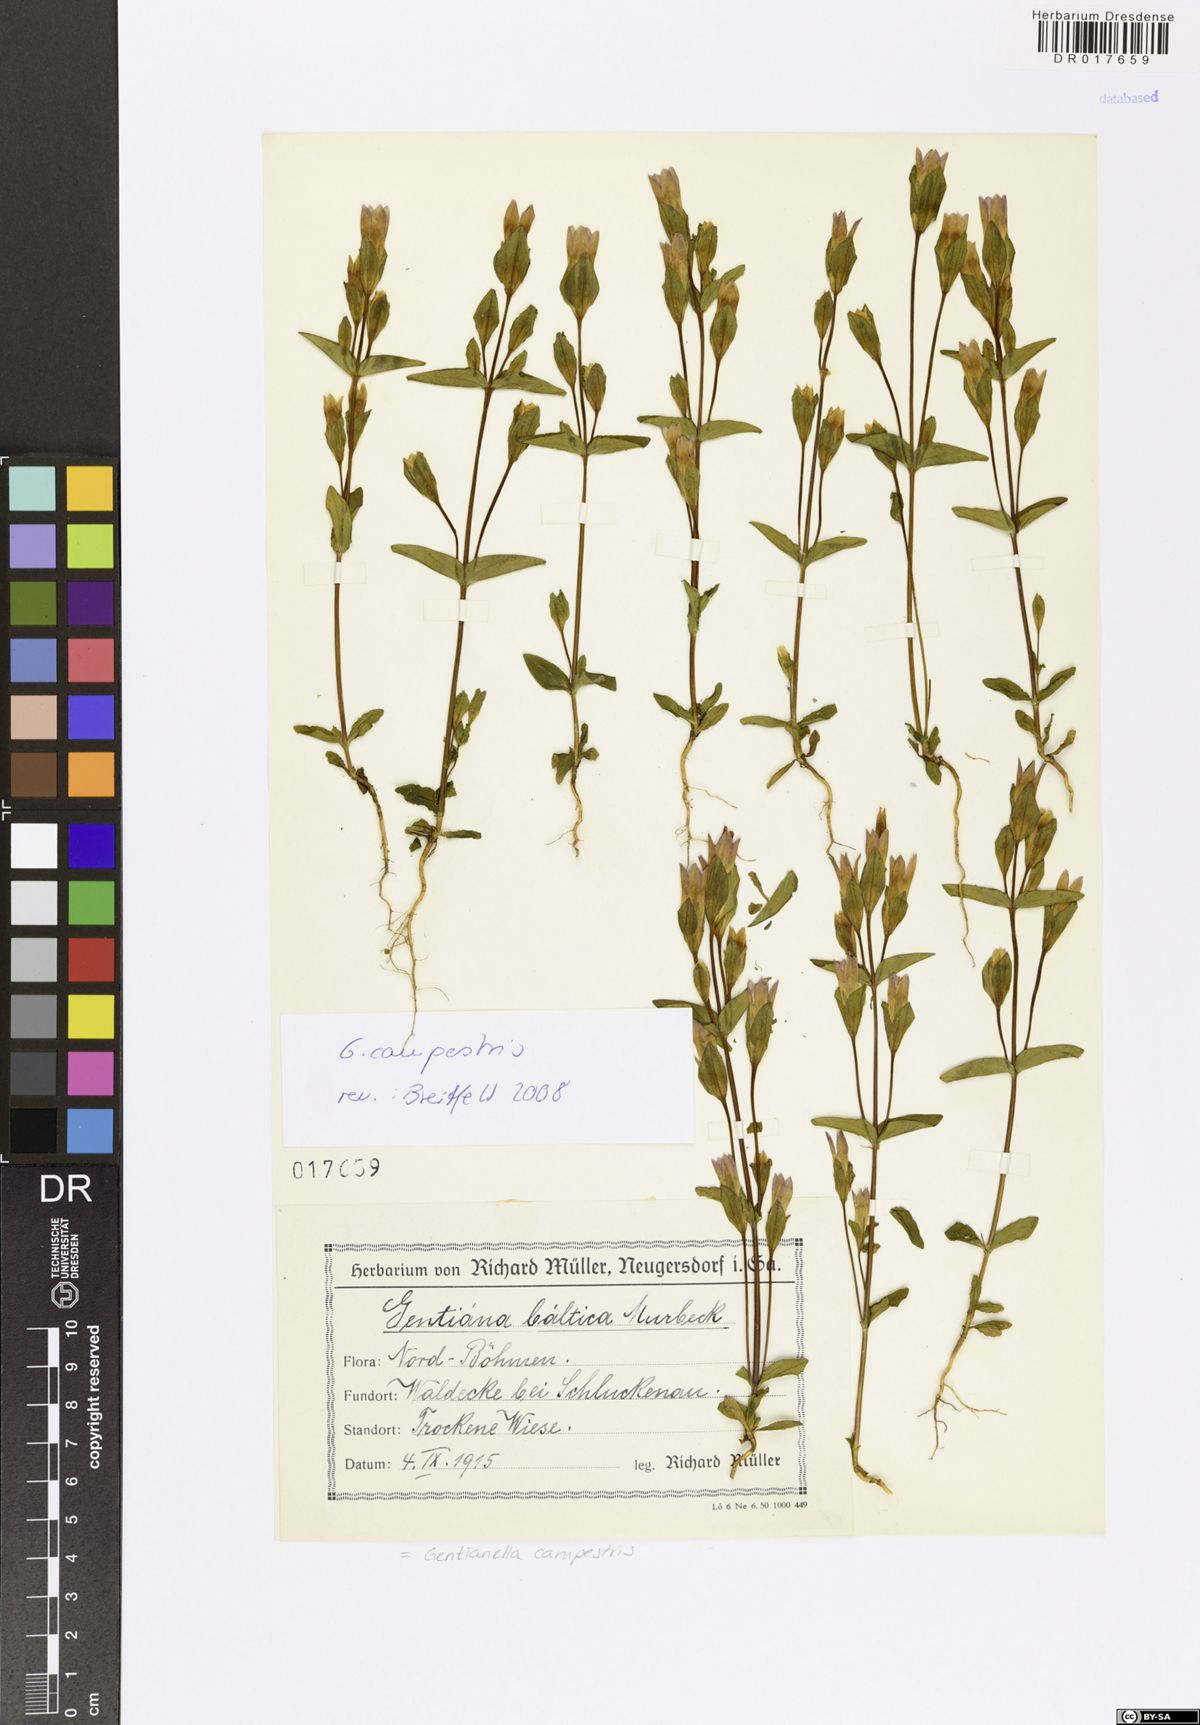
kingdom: Plantae
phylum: Tracheophyta
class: Magnoliopsida
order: Gentianales
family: Gentianaceae
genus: Gentianella
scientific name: Gentianella campestris
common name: Field gentian
